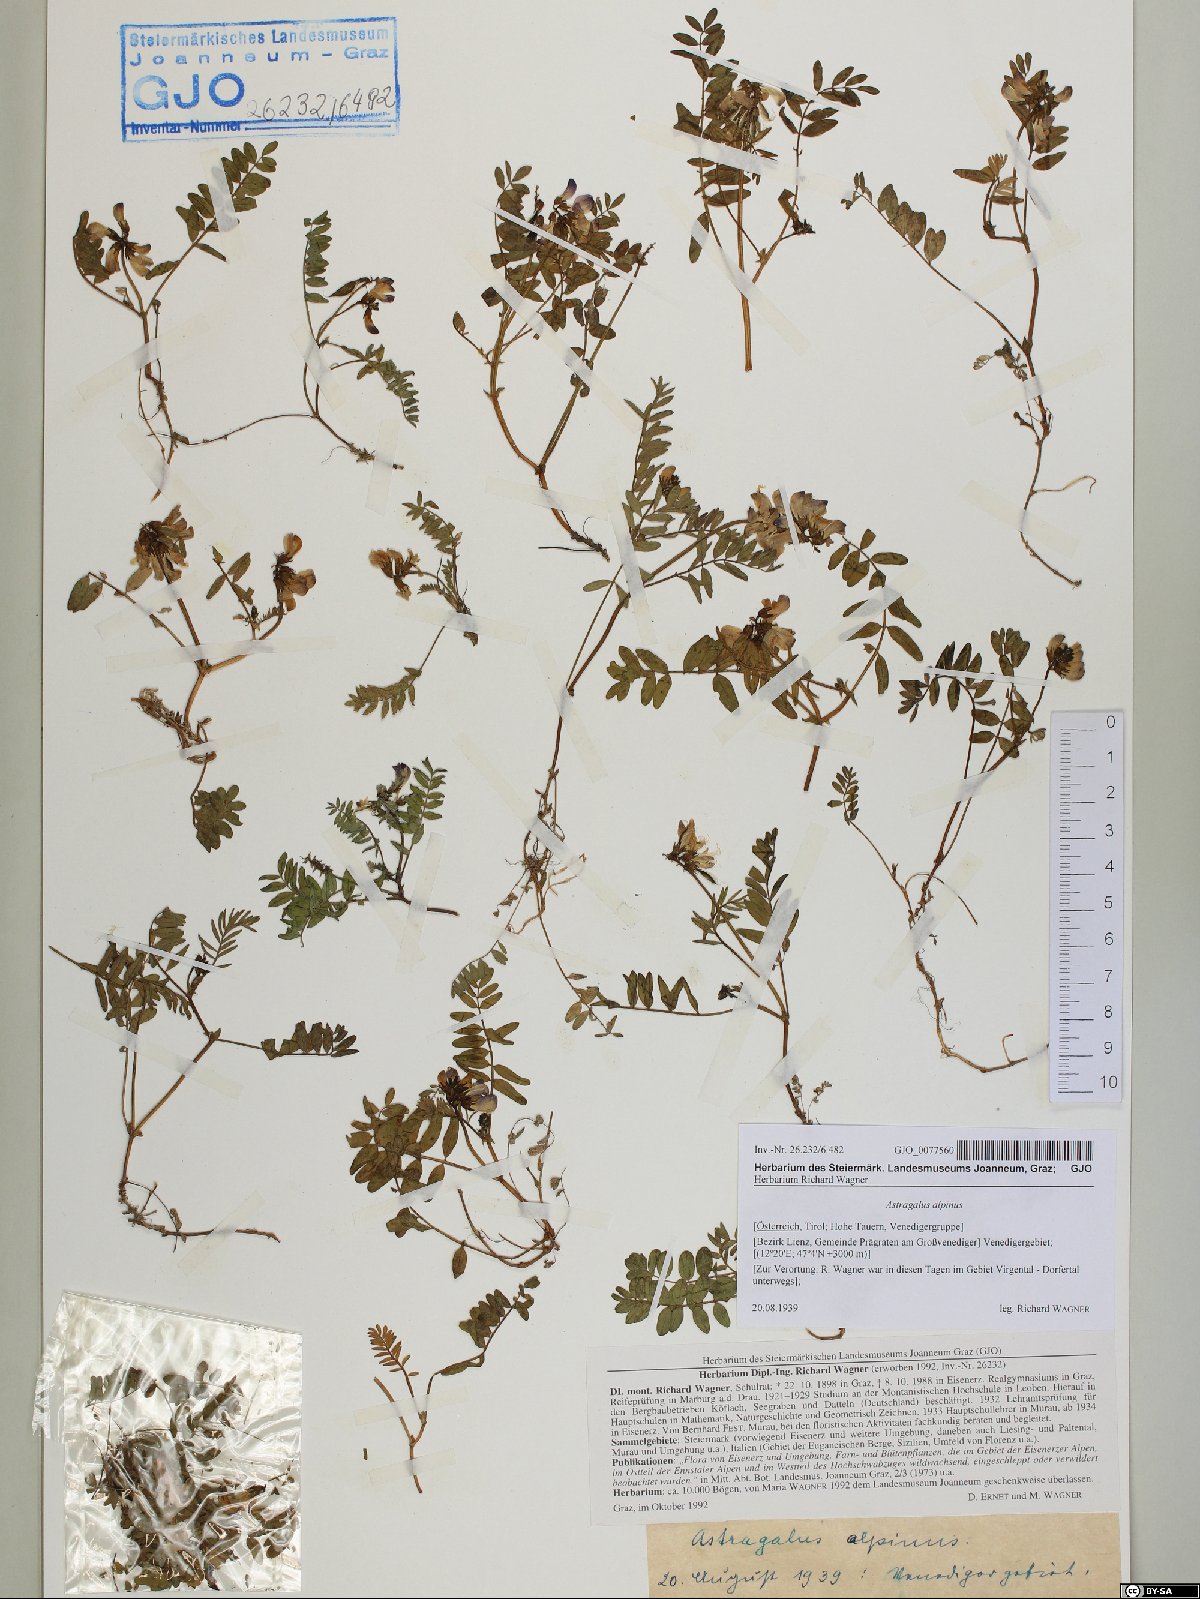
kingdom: Plantae
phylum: Tracheophyta
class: Magnoliopsida
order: Fabales
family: Fabaceae
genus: Astragalus
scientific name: Astragalus alpinus
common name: Alpine milk-vetch
